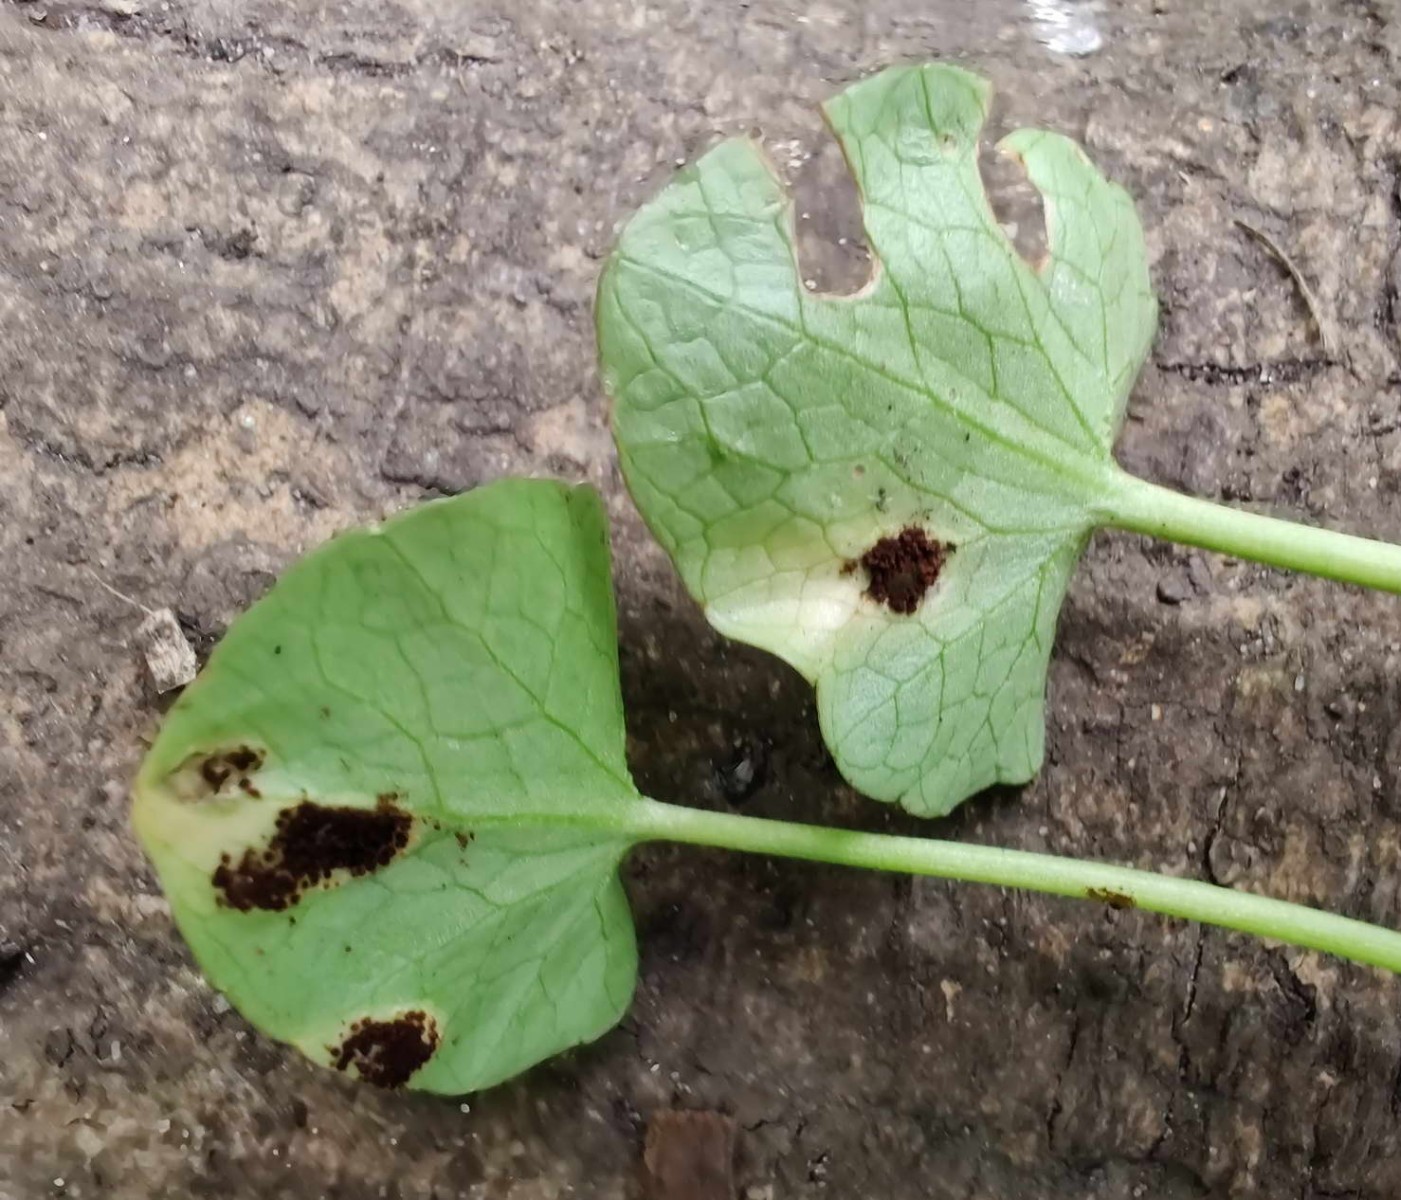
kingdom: Fungi
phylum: Basidiomycota
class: Pucciniomycetes
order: Pucciniales
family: Pucciniaceae
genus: Uromyces
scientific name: Uromyces ficariae
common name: vorterod-encellerust
